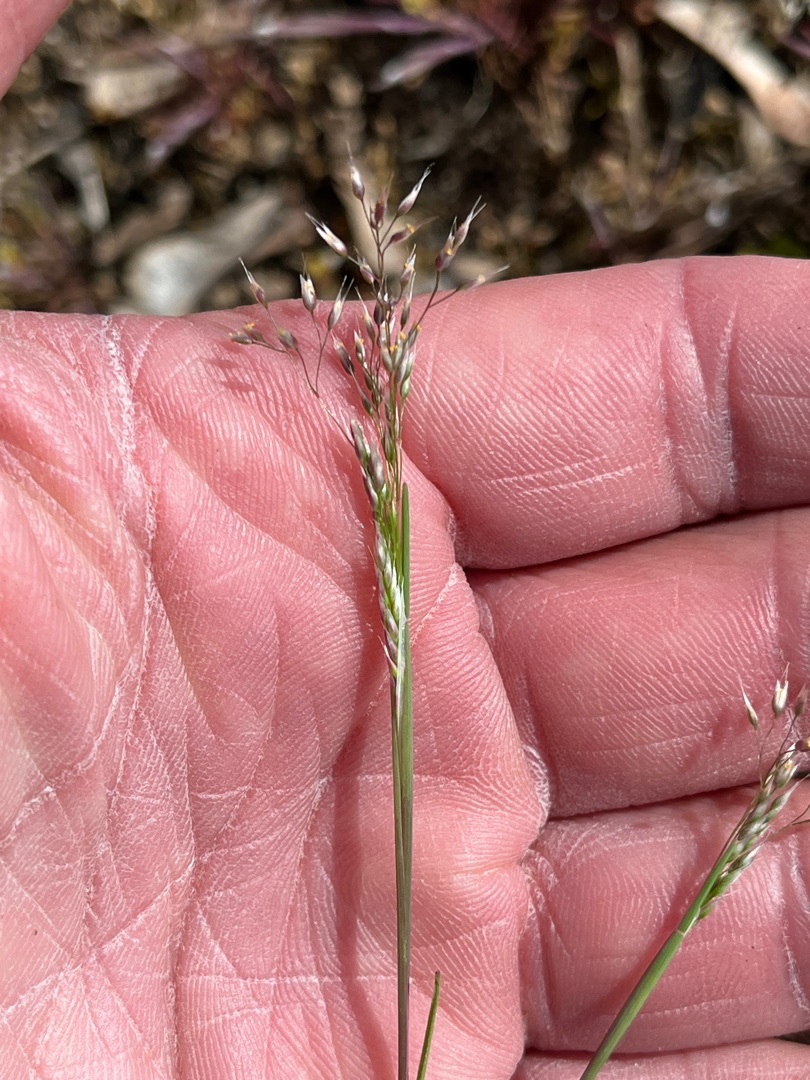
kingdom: Plantae
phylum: Tracheophyta
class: Liliopsida
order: Poales
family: Poaceae
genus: Aira
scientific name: Aira caryophyllea
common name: Udspærret dværgbunke
